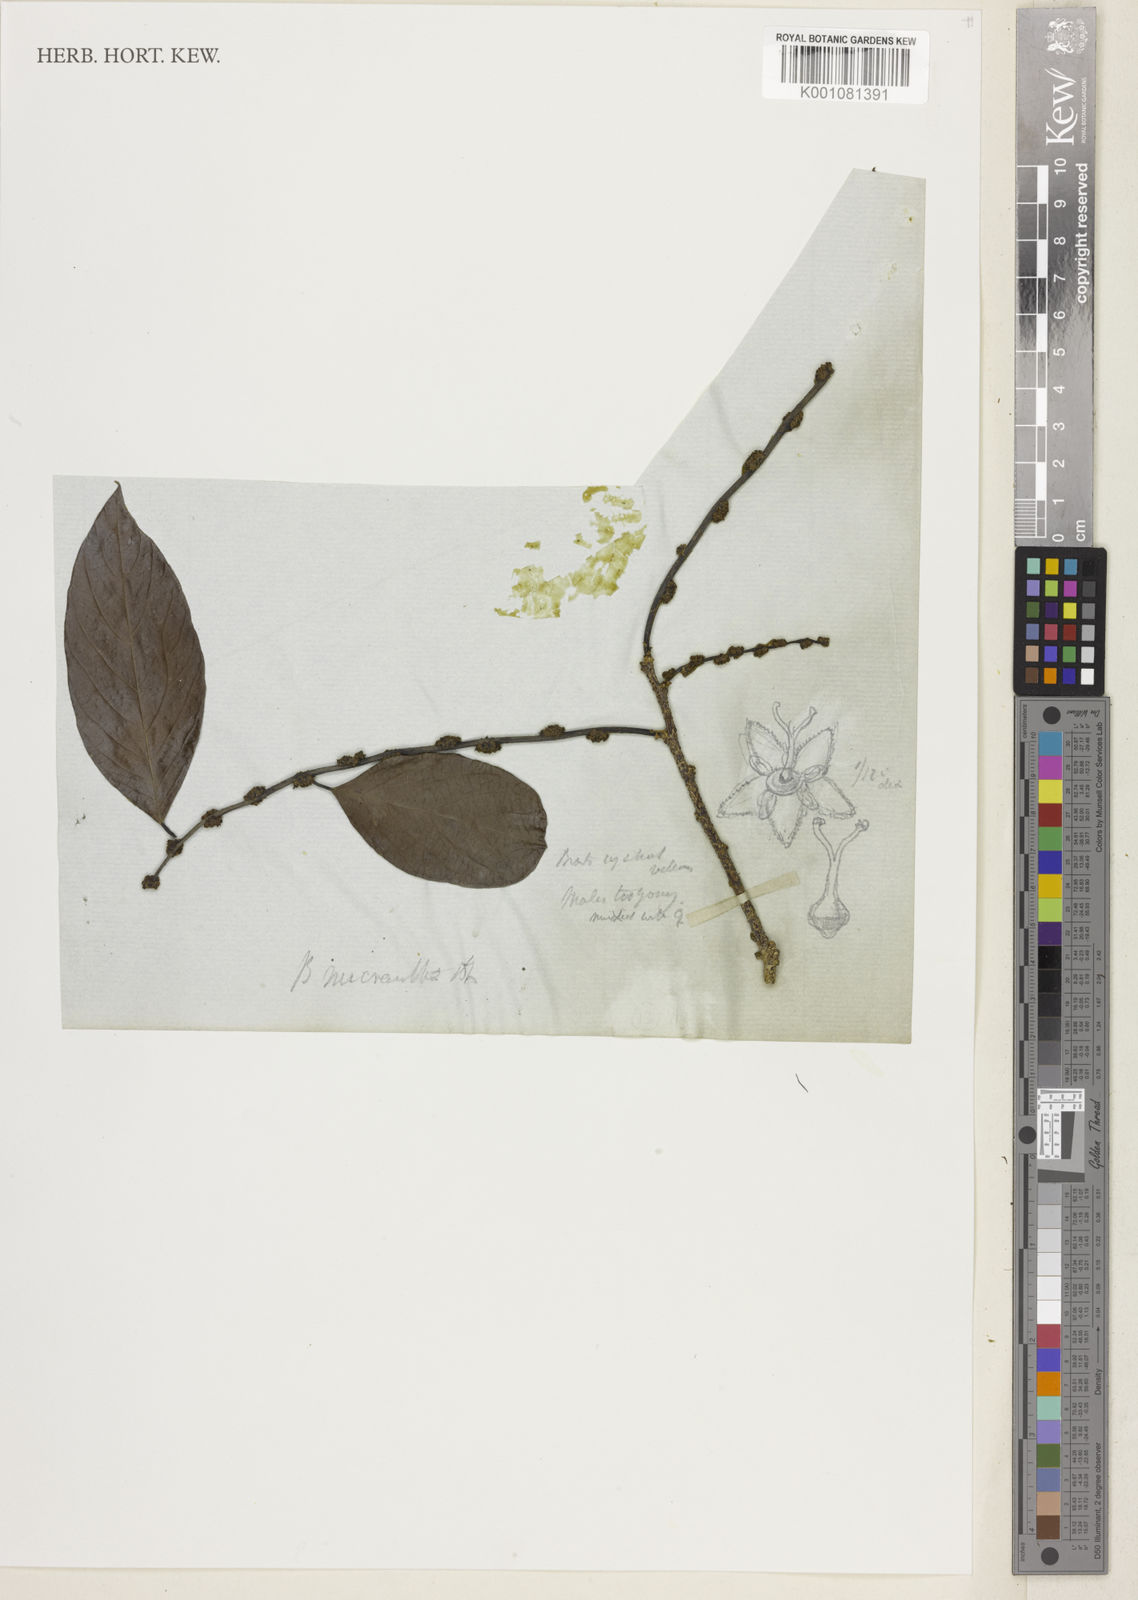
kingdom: Plantae
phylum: Tracheophyta
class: Magnoliopsida
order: Malpighiales
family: Phyllanthaceae
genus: Bridelia
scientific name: Bridelia insulana
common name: Grey-birch
